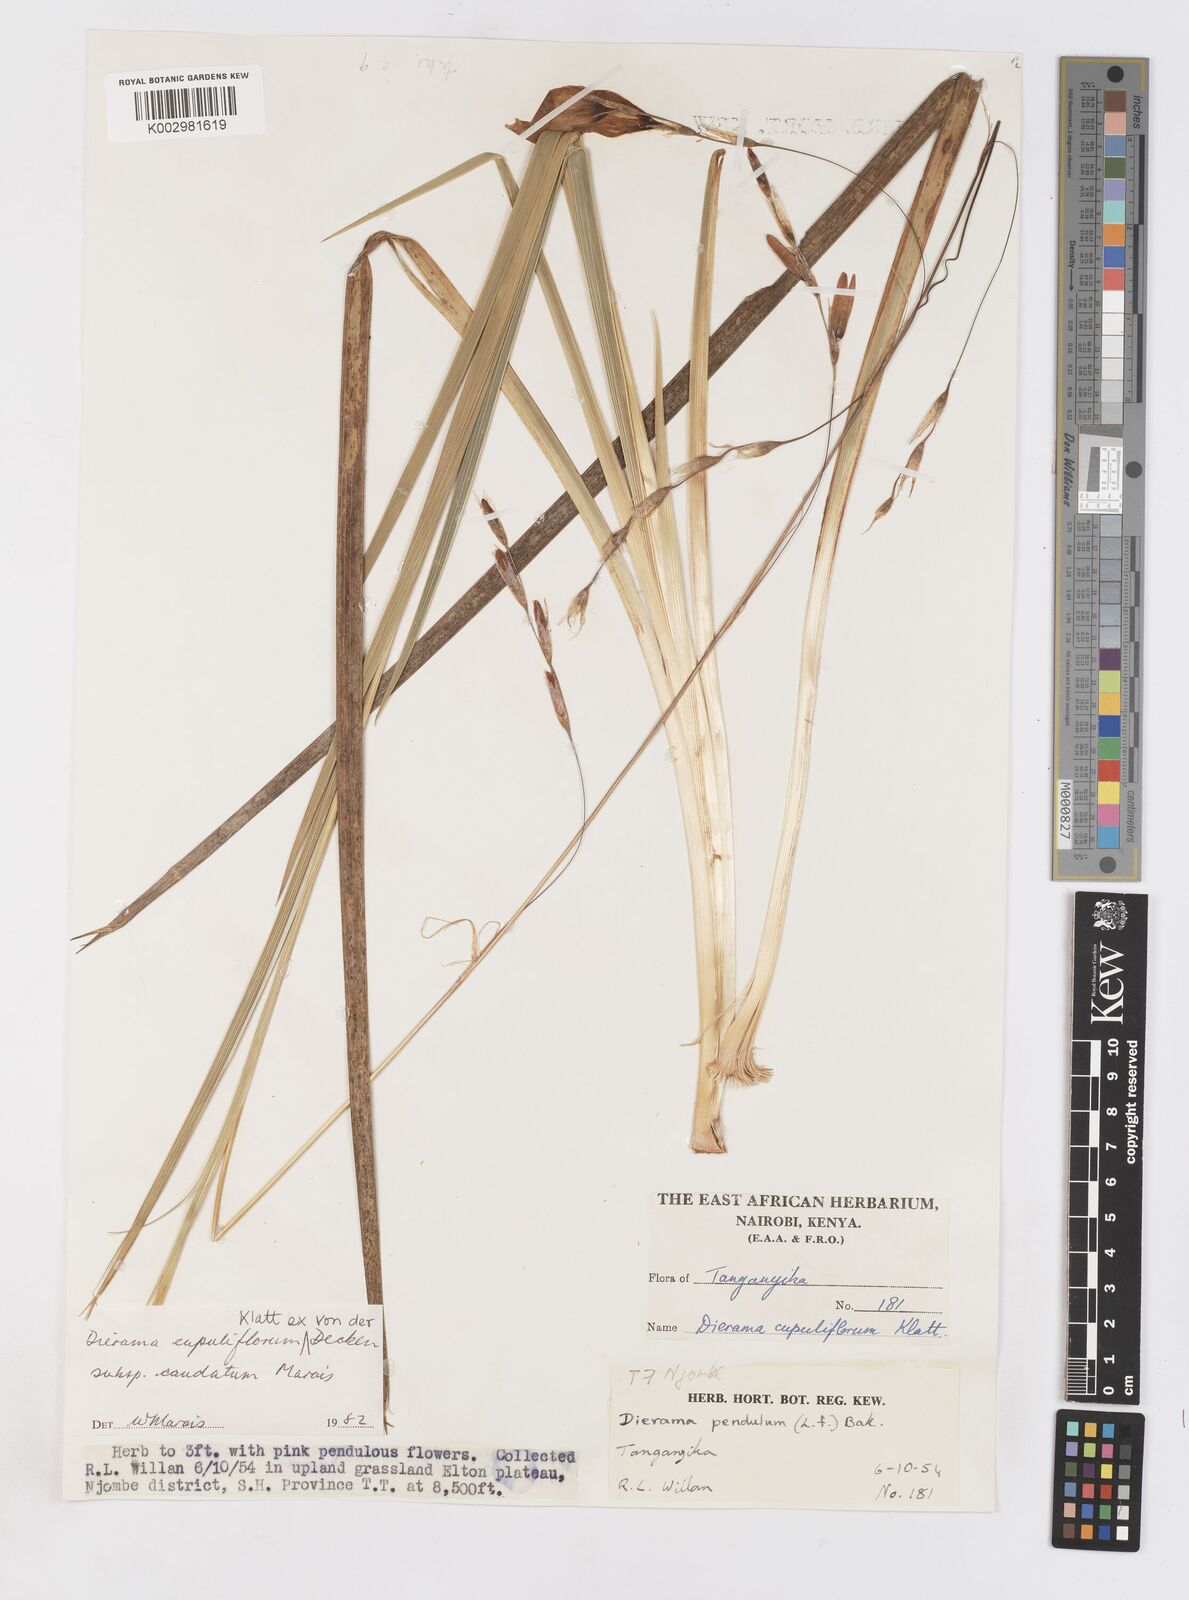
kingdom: Plantae
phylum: Tracheophyta
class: Liliopsida
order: Asparagales
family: Iridaceae
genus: Dierama
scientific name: Dierama cupuliflorum
